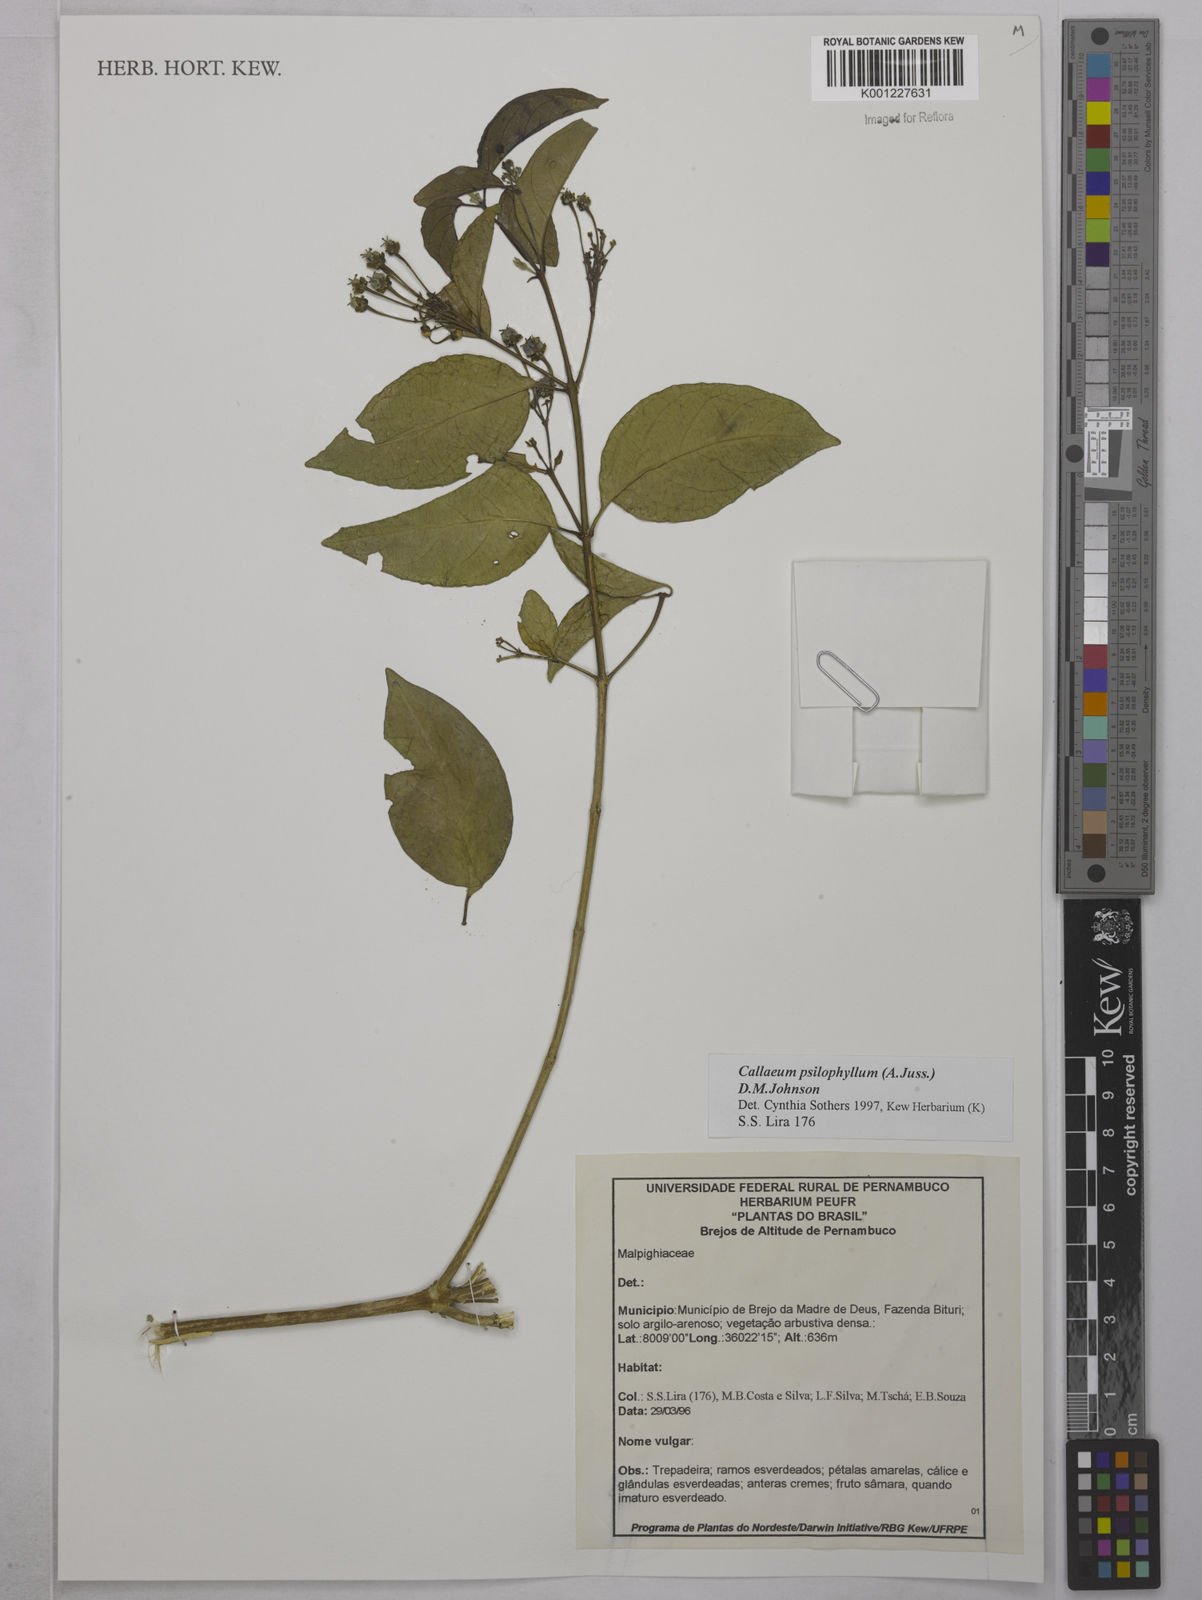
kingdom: Plantae
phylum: Tracheophyta
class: Magnoliopsida
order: Malpighiales
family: Malpighiaceae
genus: Callaeum
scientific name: Callaeum psilophyllum
